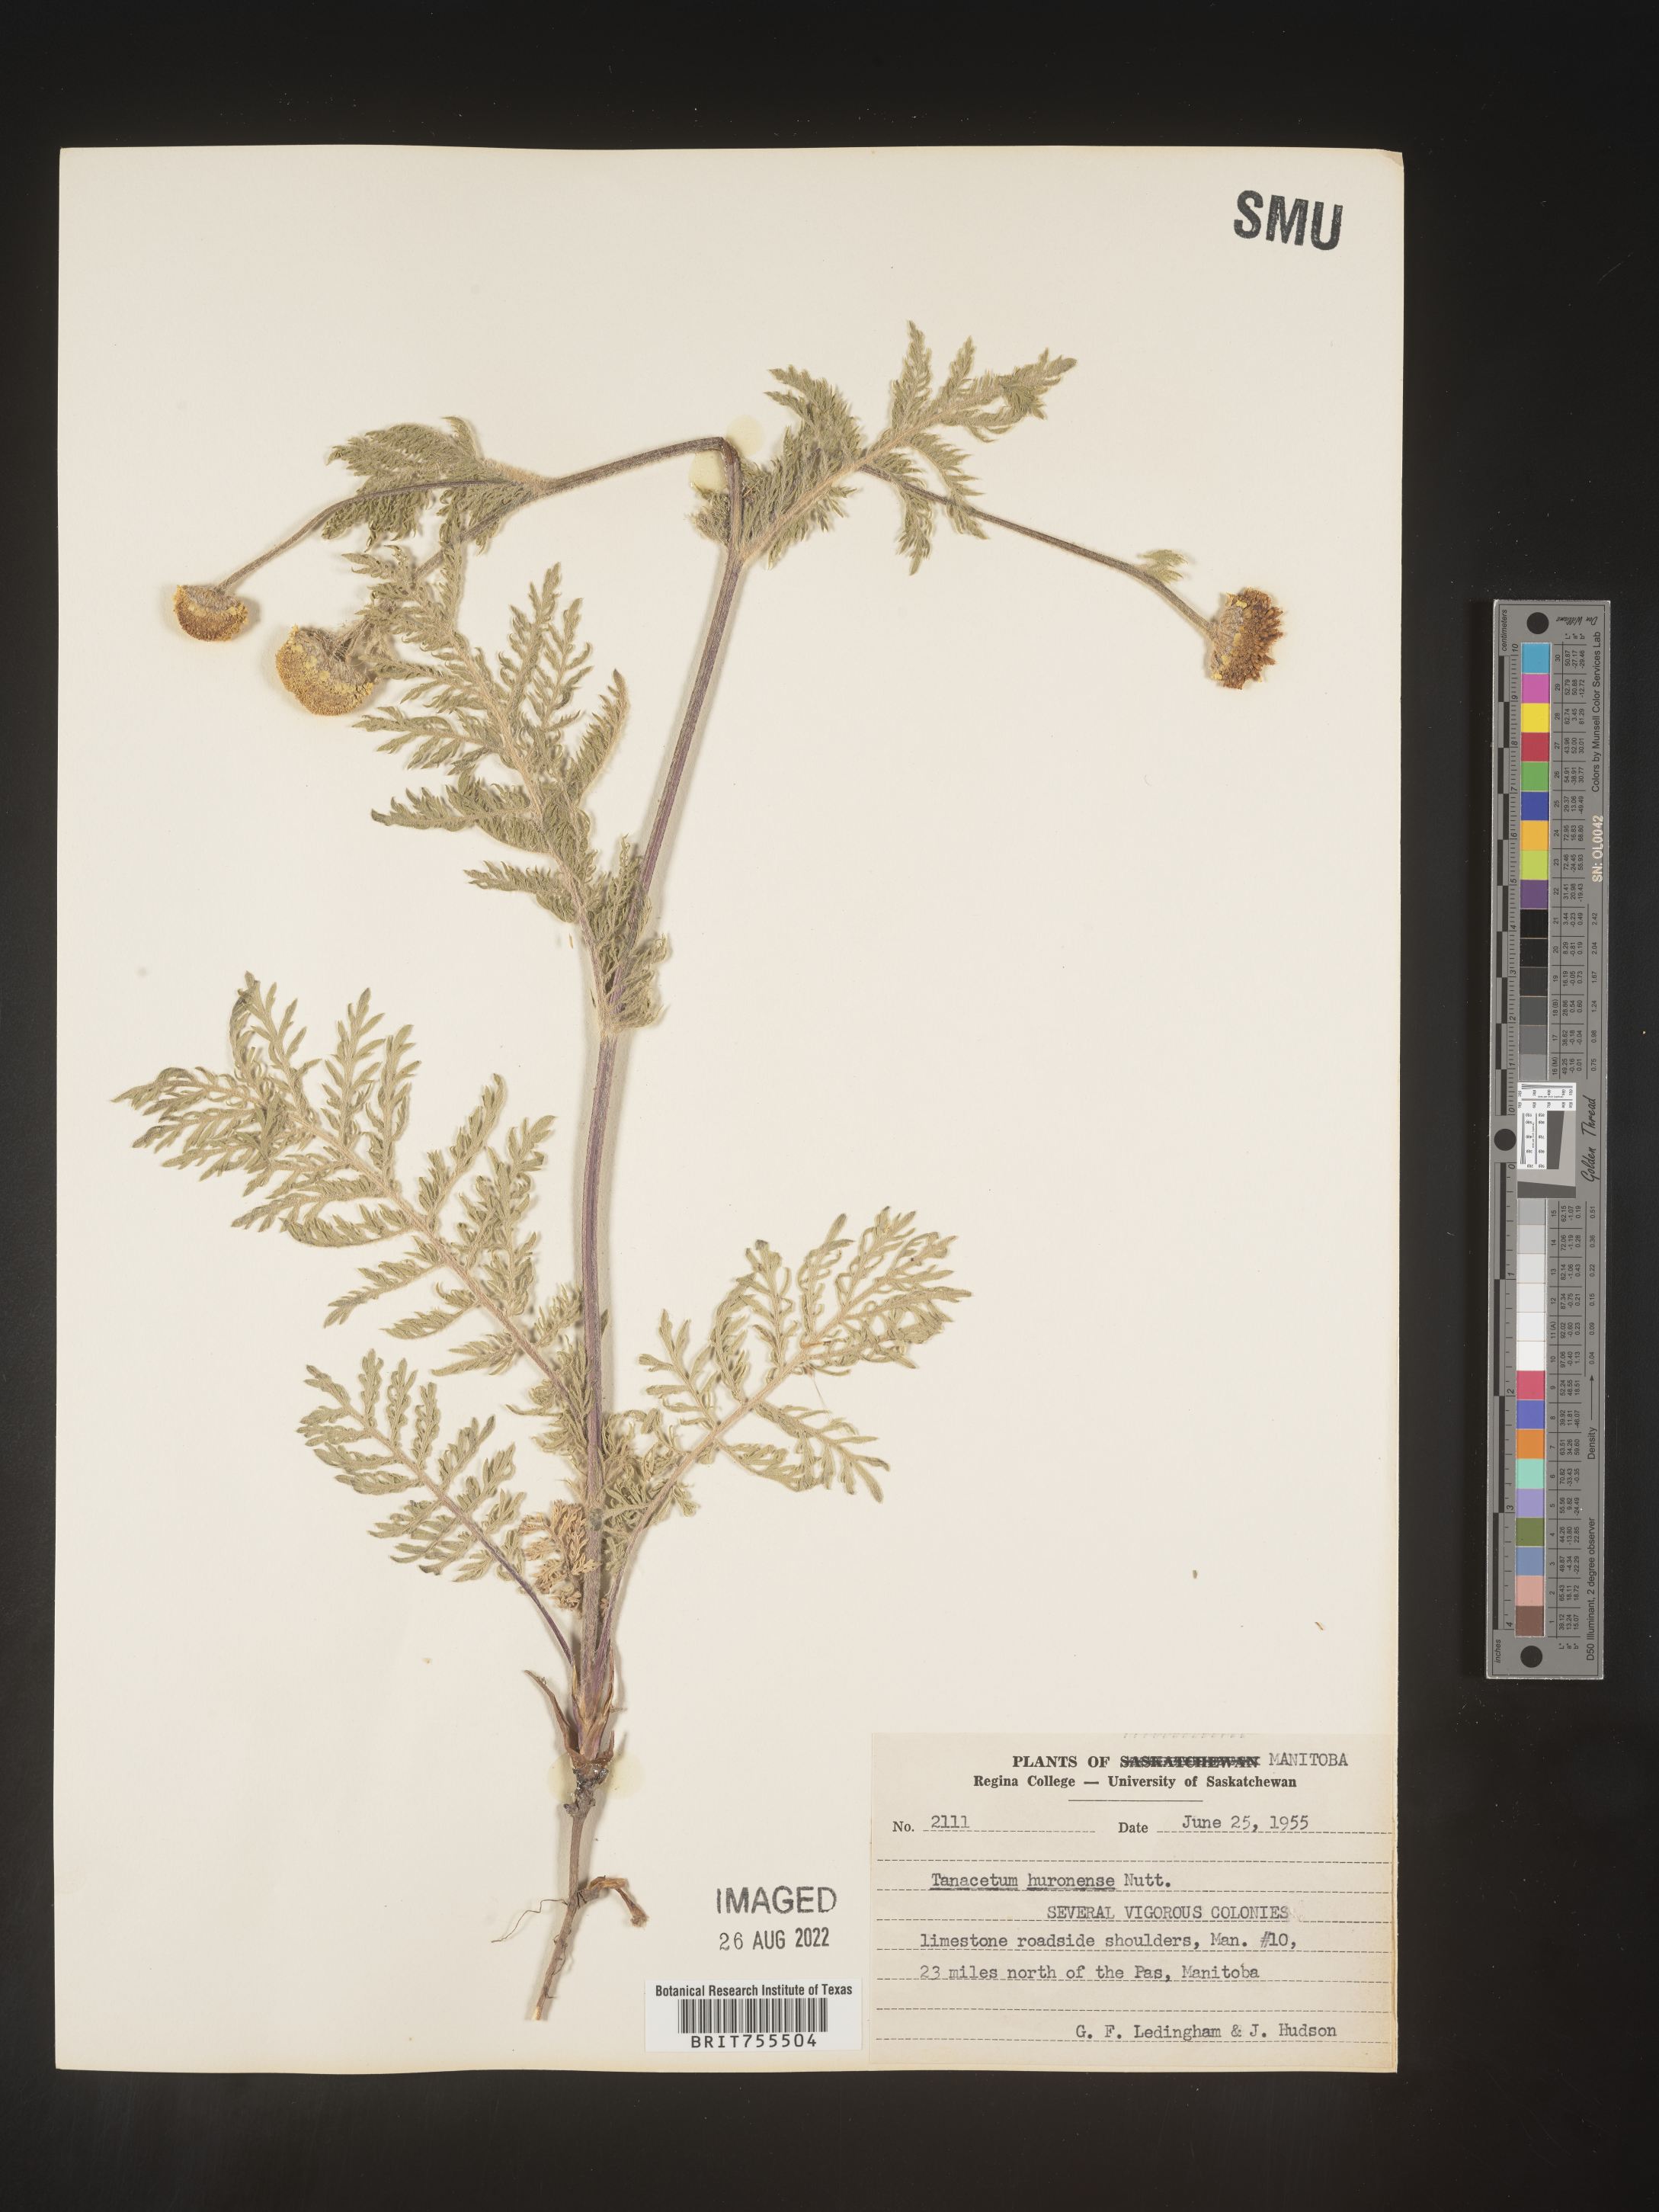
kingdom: Plantae
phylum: Tracheophyta
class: Magnoliopsida
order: Asterales
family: Asteraceae
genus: Tanacetum
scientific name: Tanacetum bipinnatum
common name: Dwarf tansy
